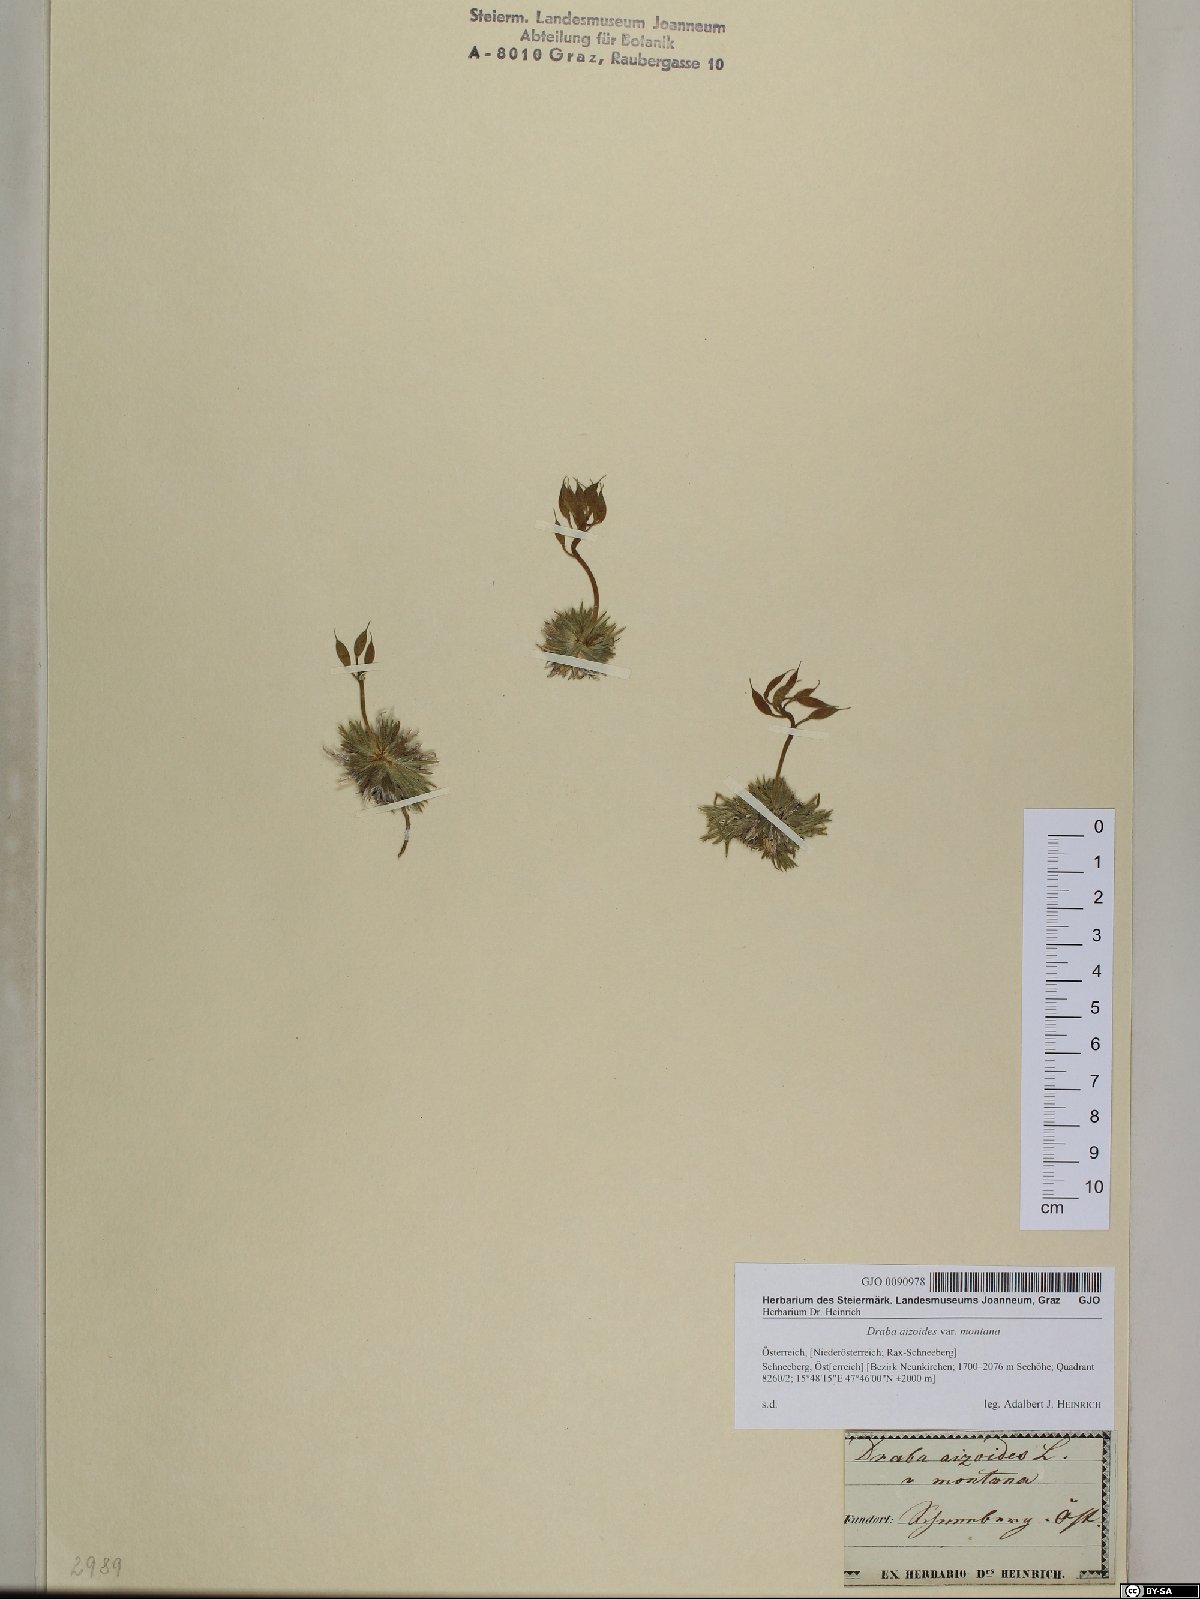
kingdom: Plantae
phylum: Tracheophyta
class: Magnoliopsida
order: Brassicales
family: Brassicaceae
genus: Draba
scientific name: Draba aizoides
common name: Yellow whitlowgrass
